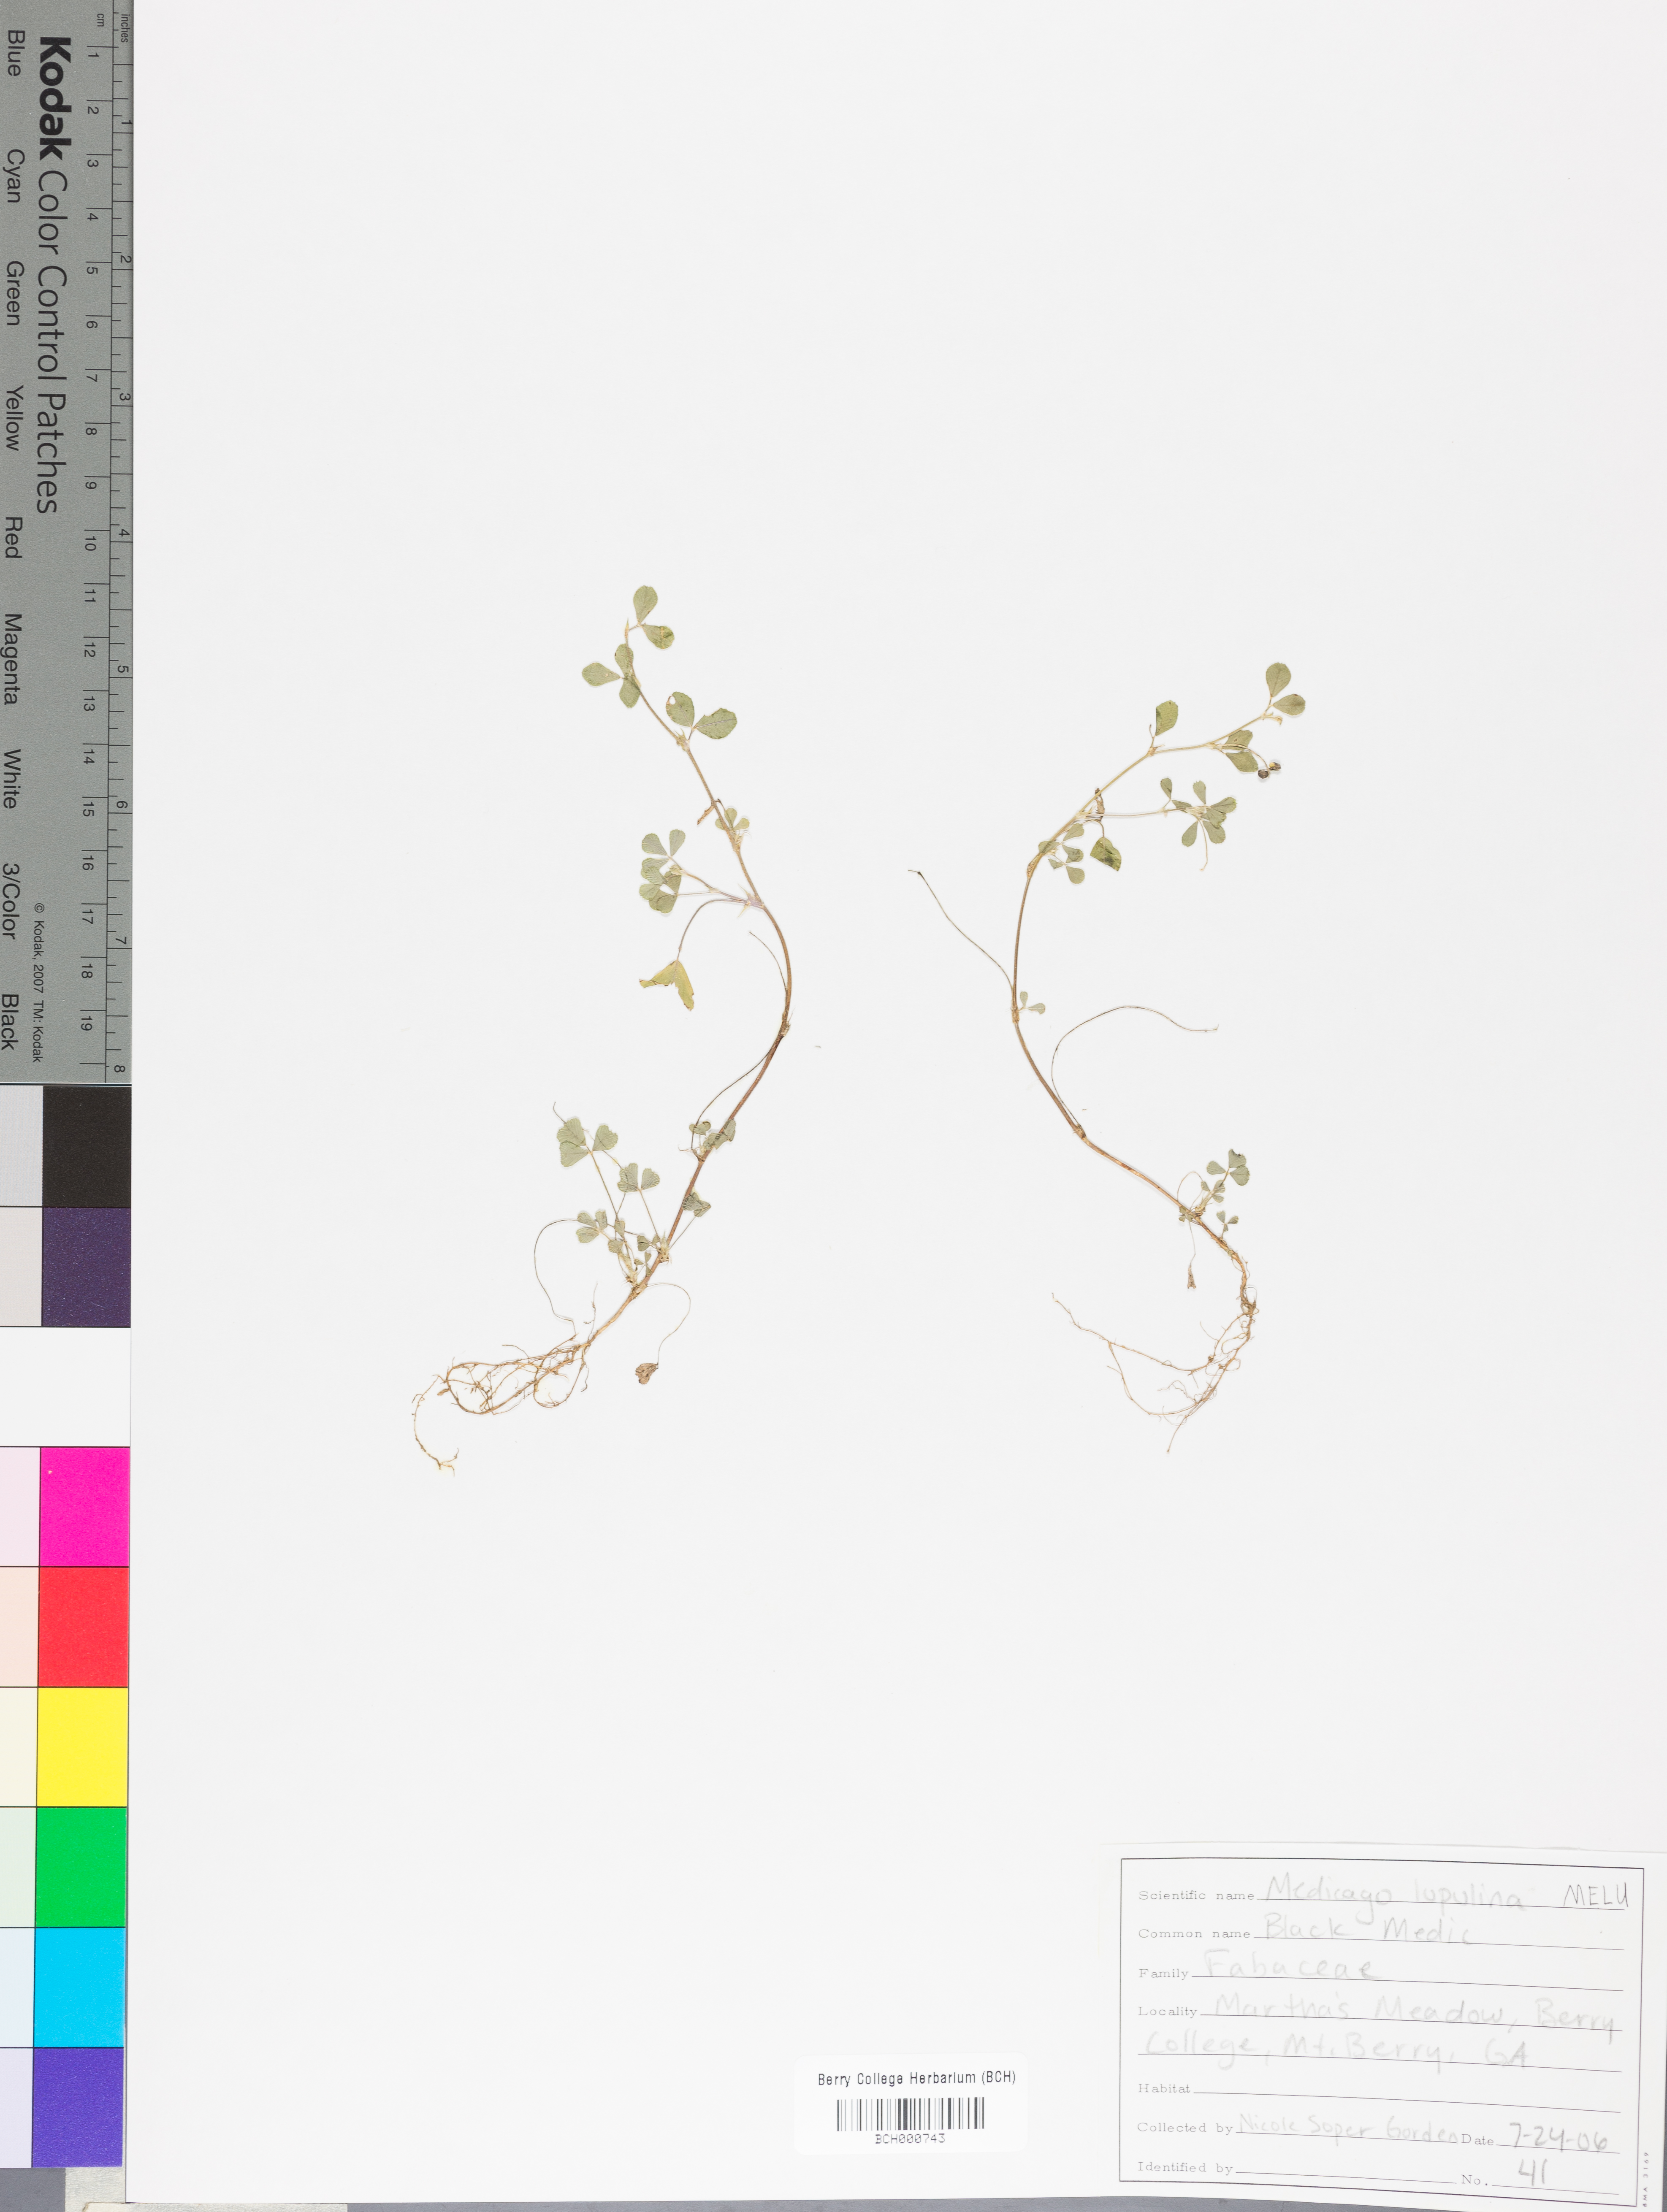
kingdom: Plantae
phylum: Tracheophyta
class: Magnoliopsida
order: Fabales
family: Fabaceae
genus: Medicago
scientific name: Medicago lupulina
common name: Black medick
